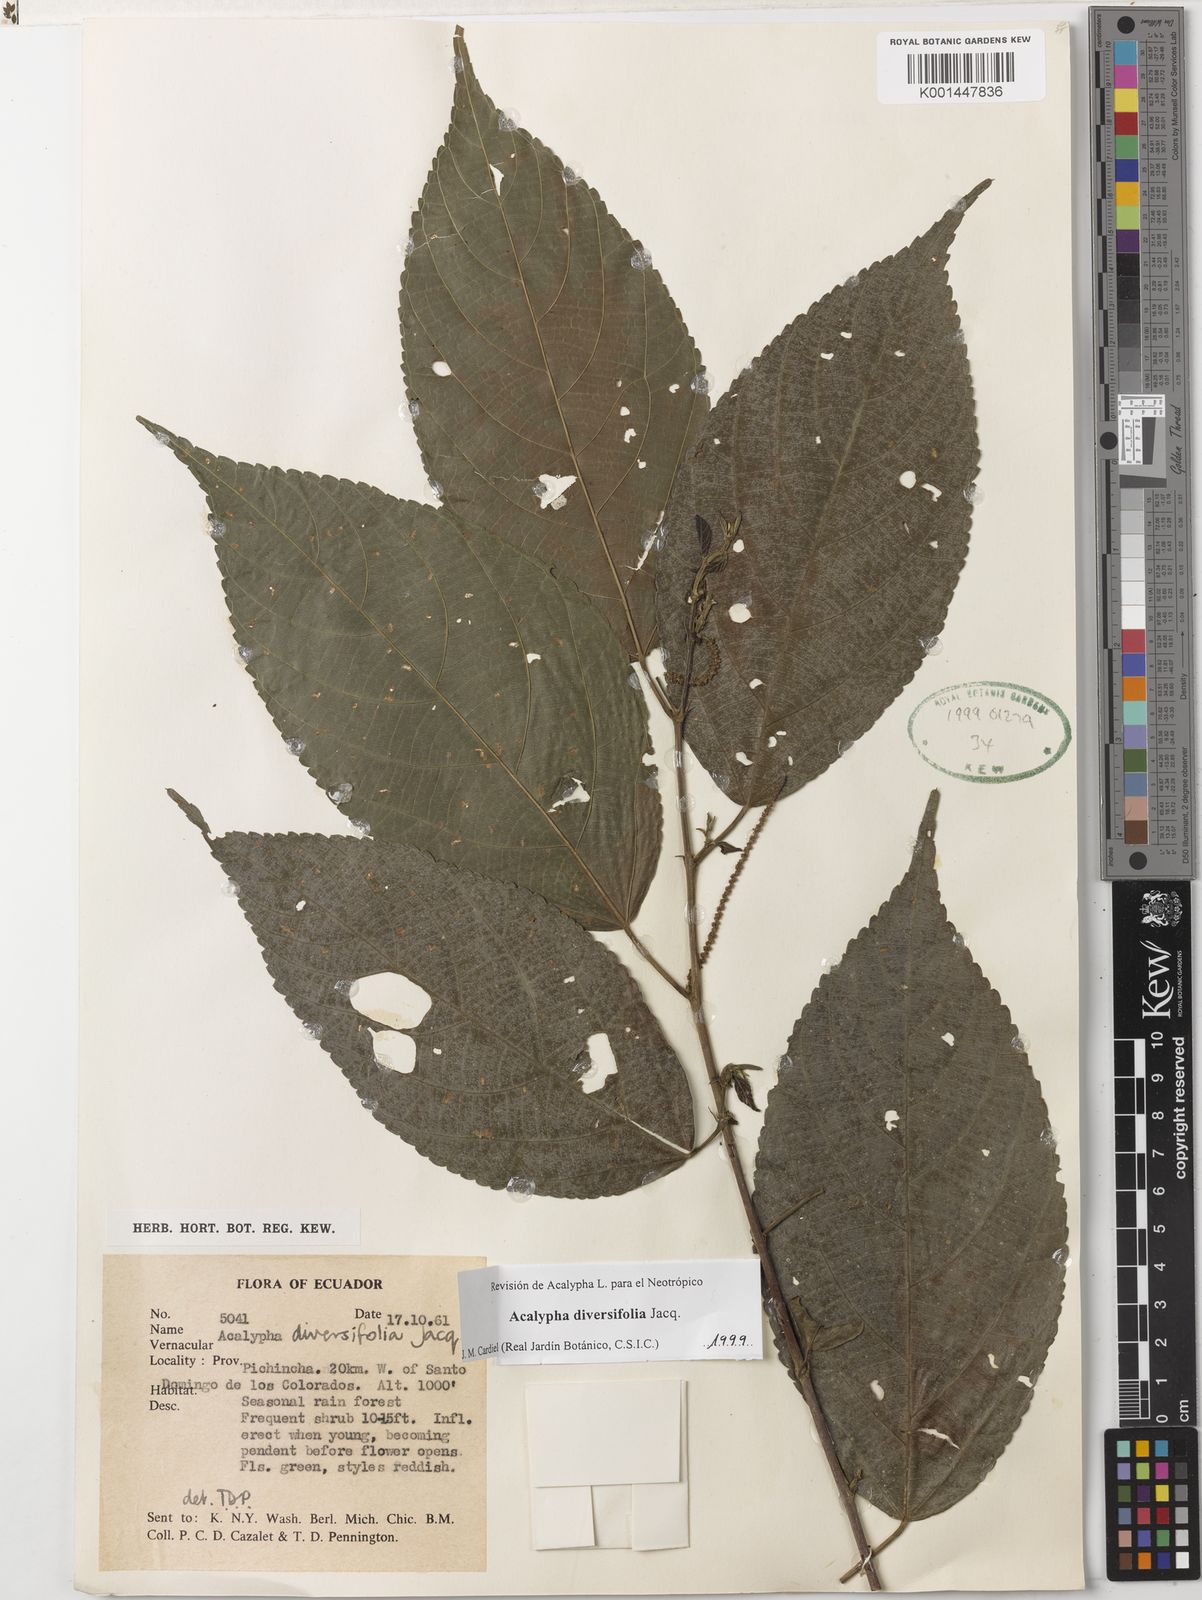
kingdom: Plantae
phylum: Tracheophyta
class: Magnoliopsida
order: Malpighiales
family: Euphorbiaceae
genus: Acalypha
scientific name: Acalypha diversifolia
